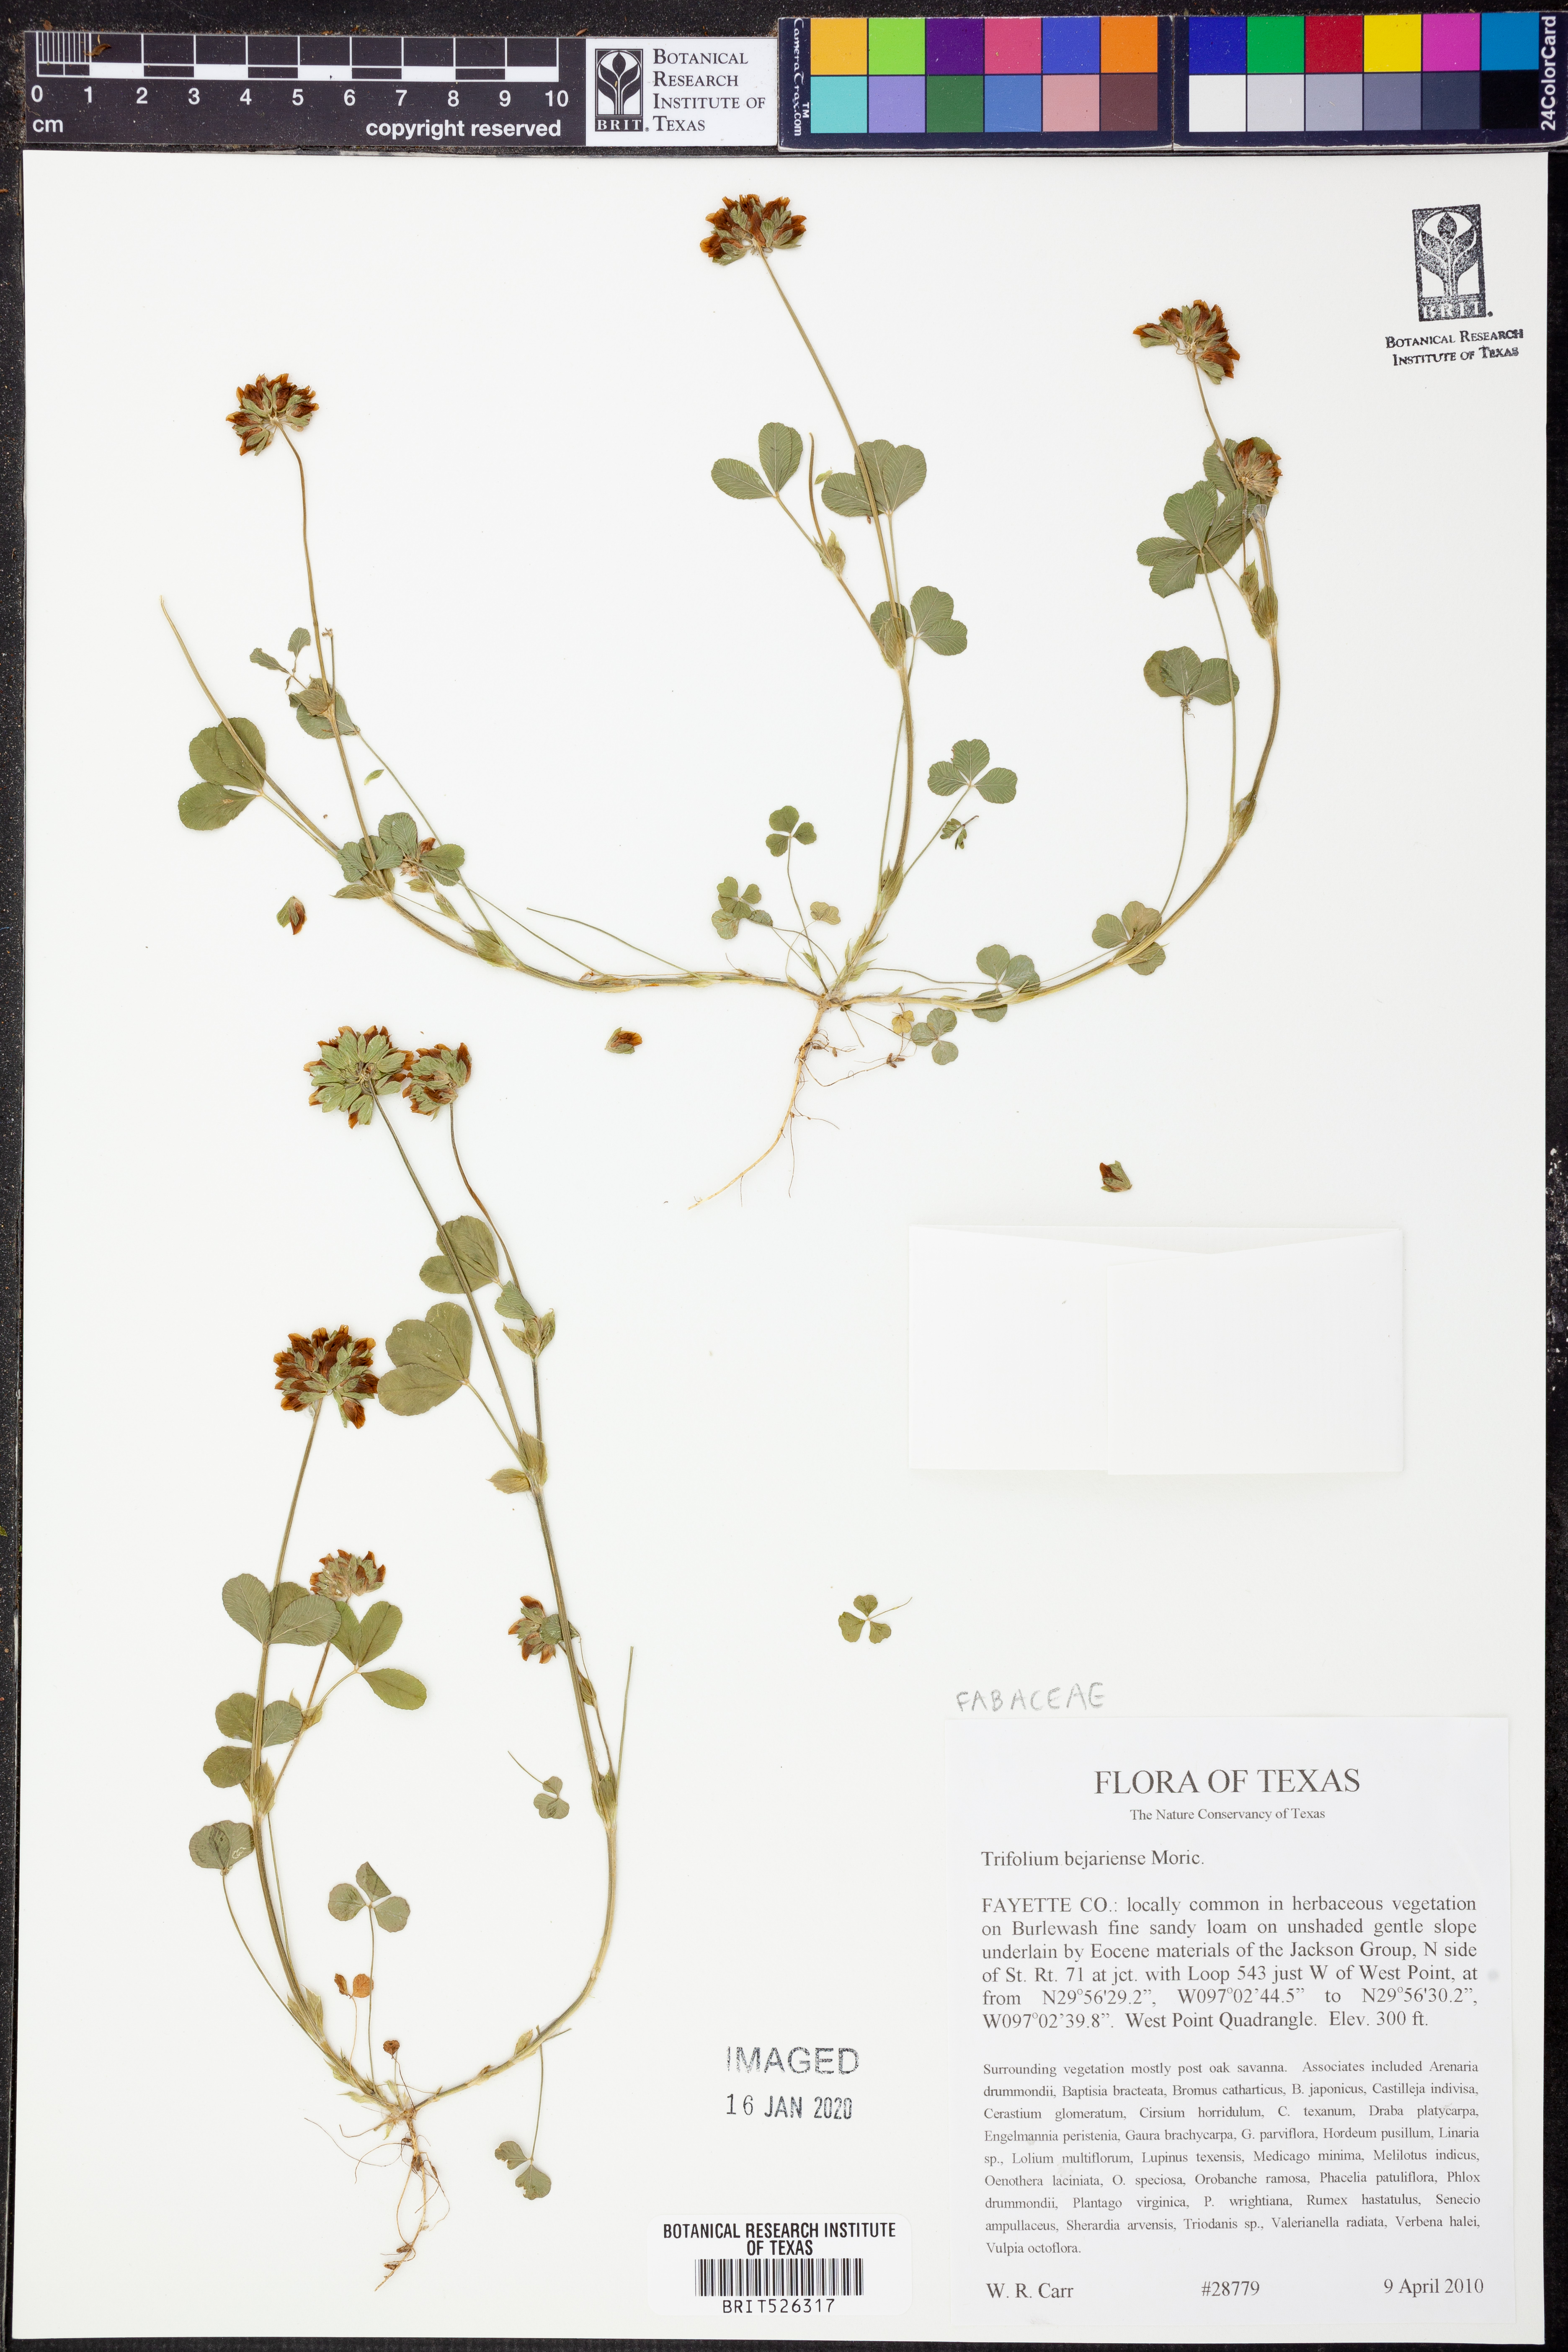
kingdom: Plantae
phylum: Tracheophyta
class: Magnoliopsida
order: Fabales
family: Fabaceae
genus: Trifolium
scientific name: Trifolium bejariense
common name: Bejar clover
